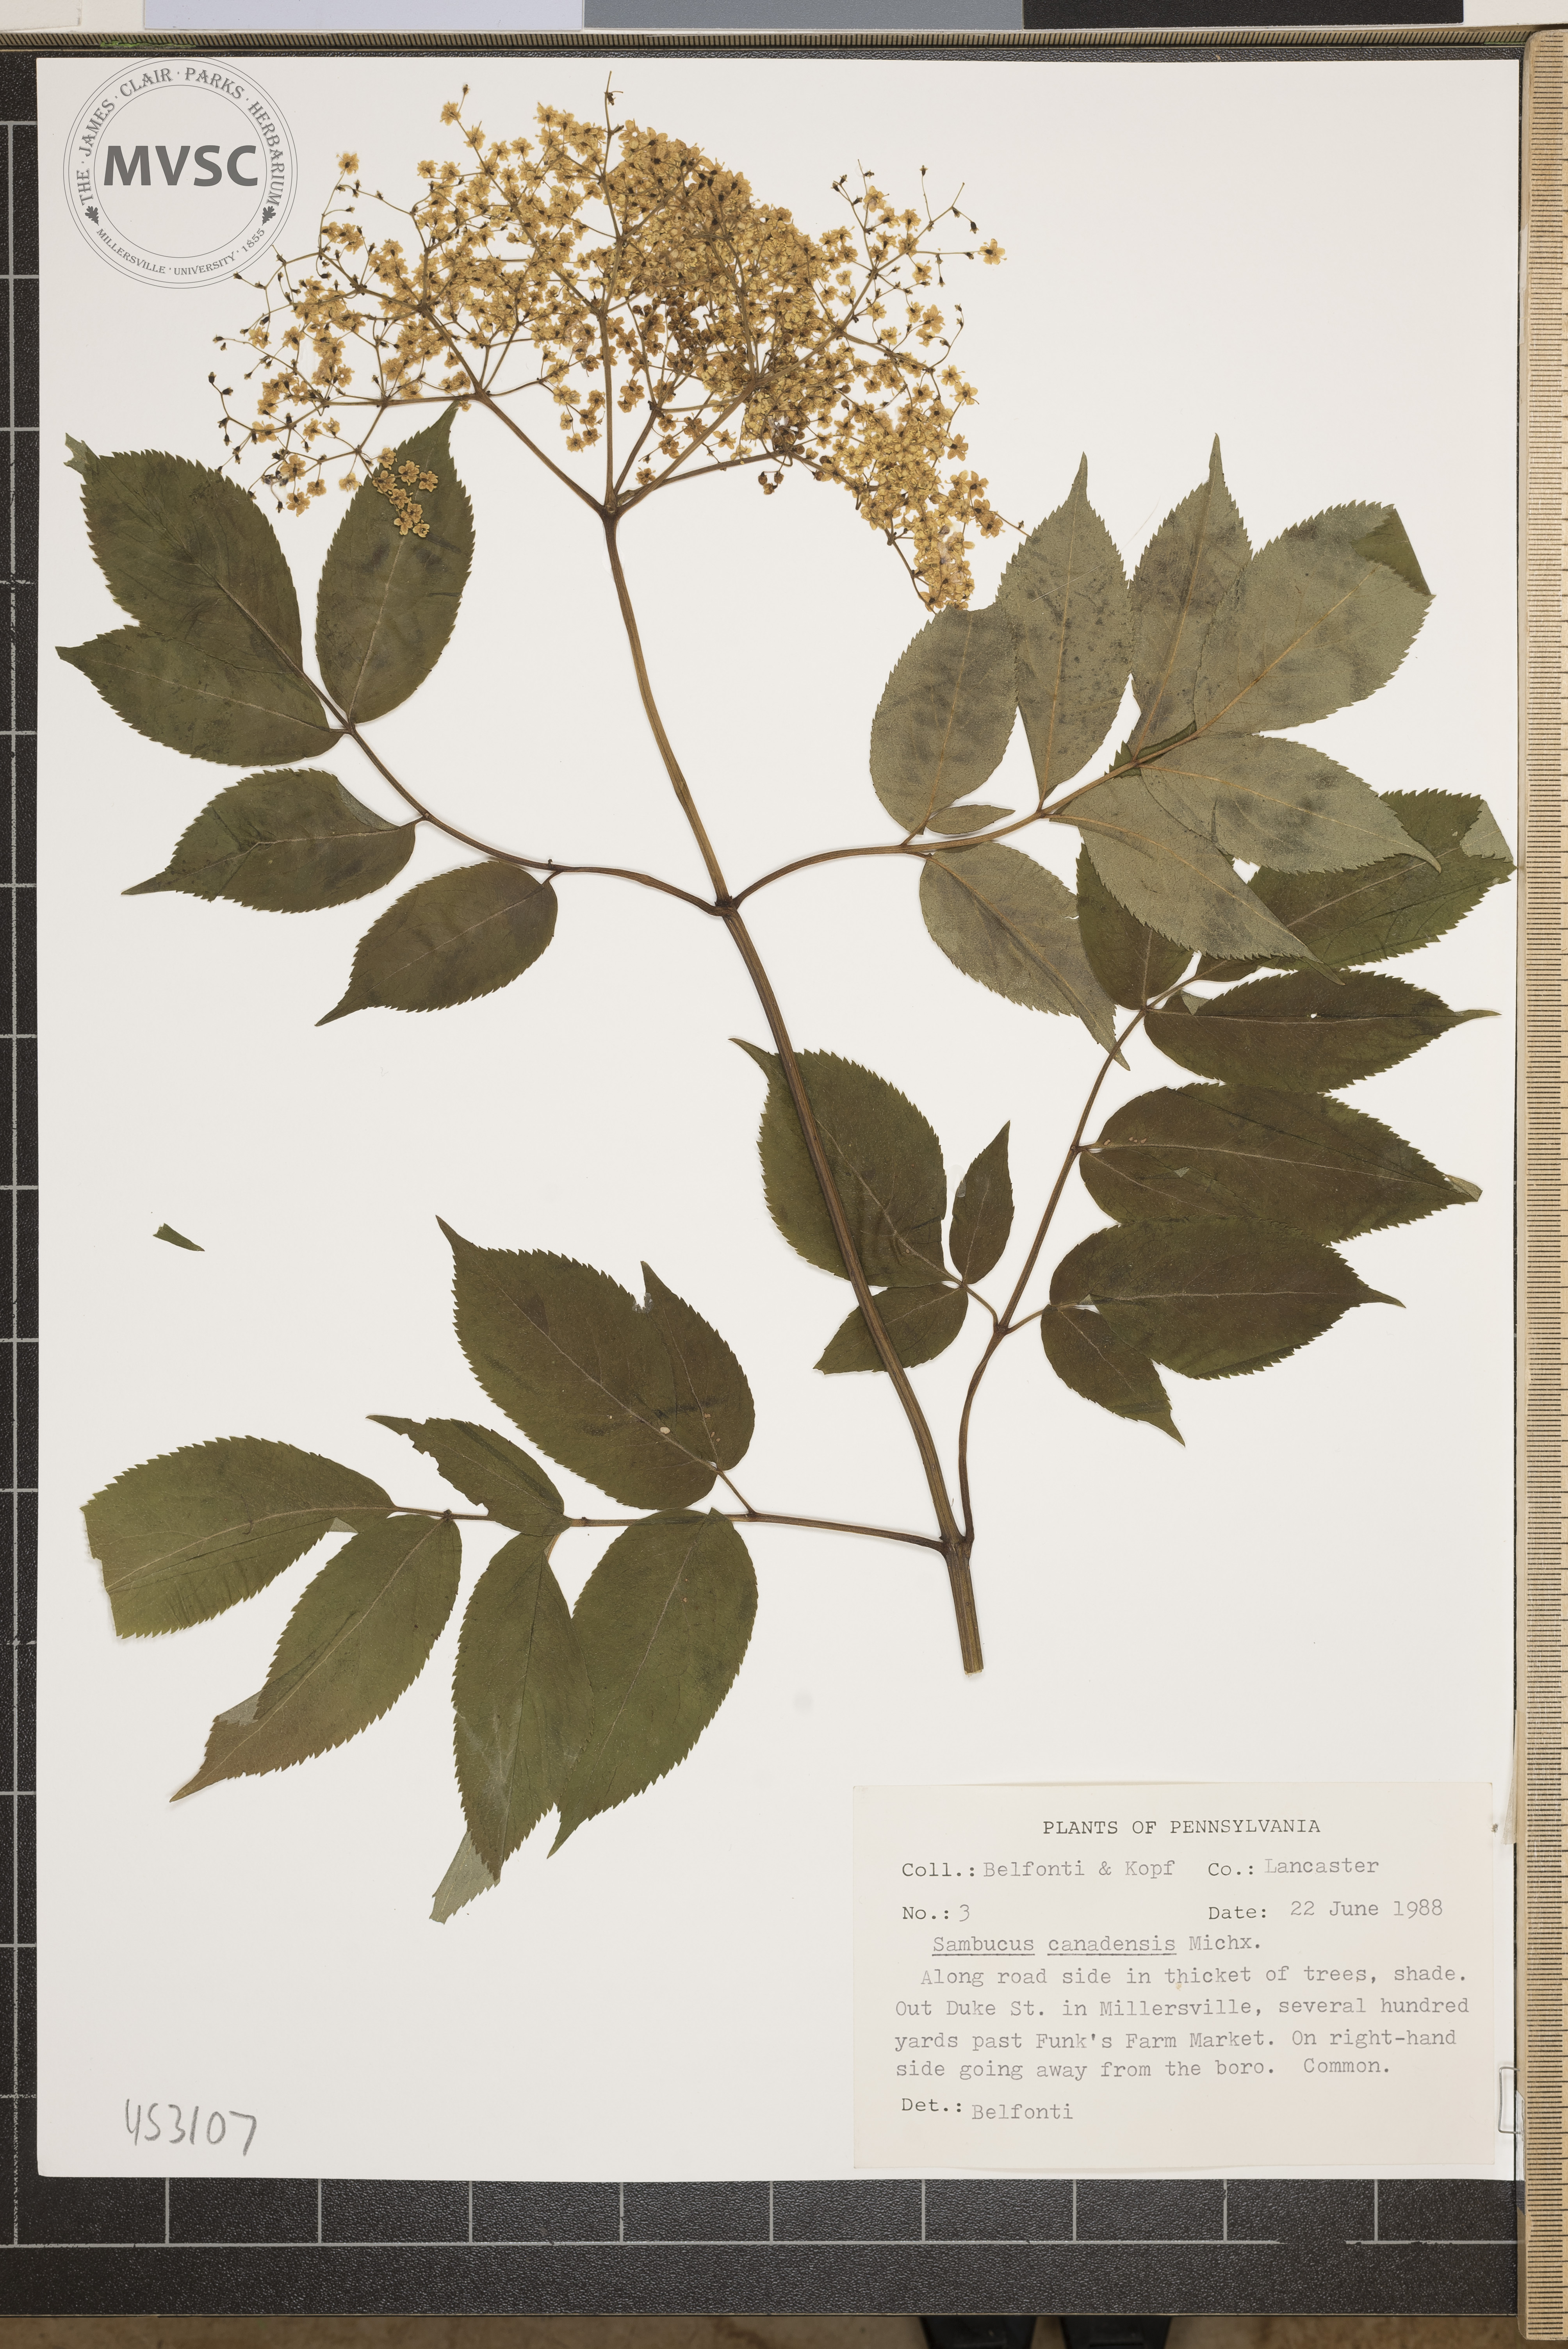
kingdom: Plantae
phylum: Tracheophyta
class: Magnoliopsida
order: Dipsacales
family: Viburnaceae
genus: Sambucus
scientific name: Sambucus canadensis
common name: American elder
